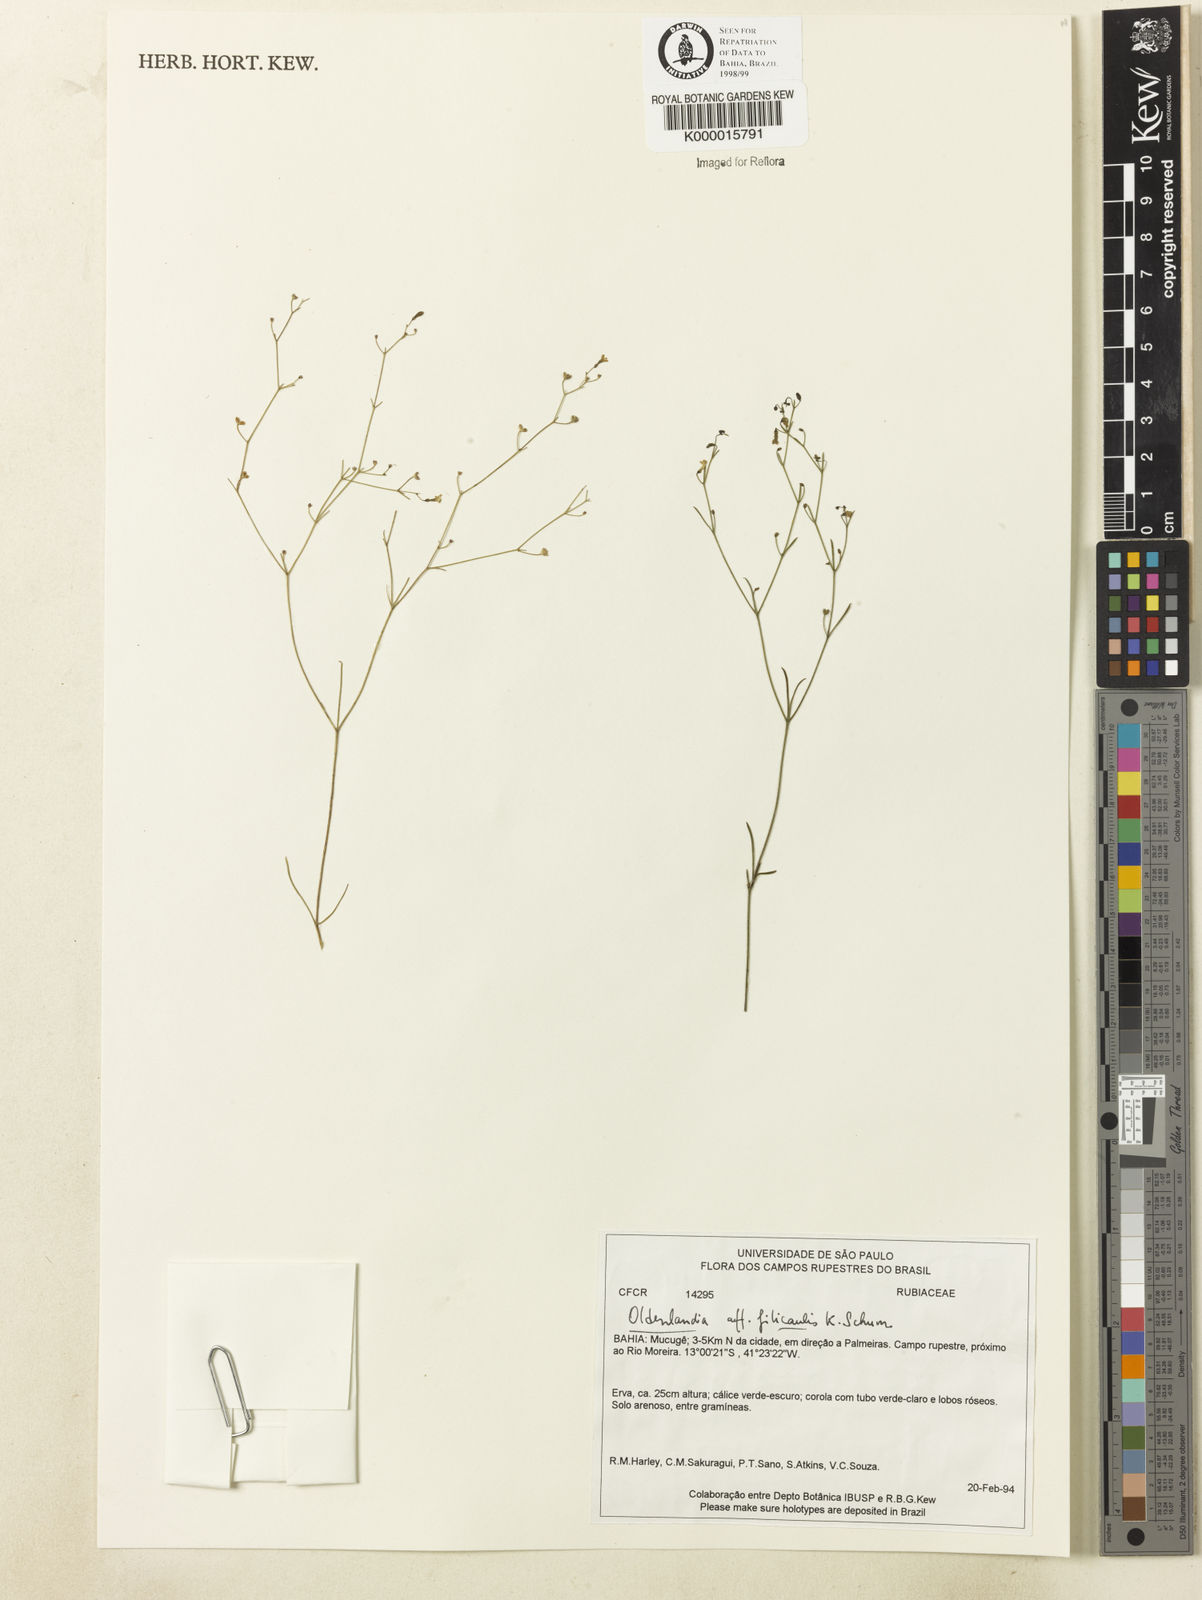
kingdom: Plantae
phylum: Tracheophyta
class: Magnoliopsida
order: Gentianales
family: Rubiaceae
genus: Oldenlandia
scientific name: Oldenlandia filicaulis
